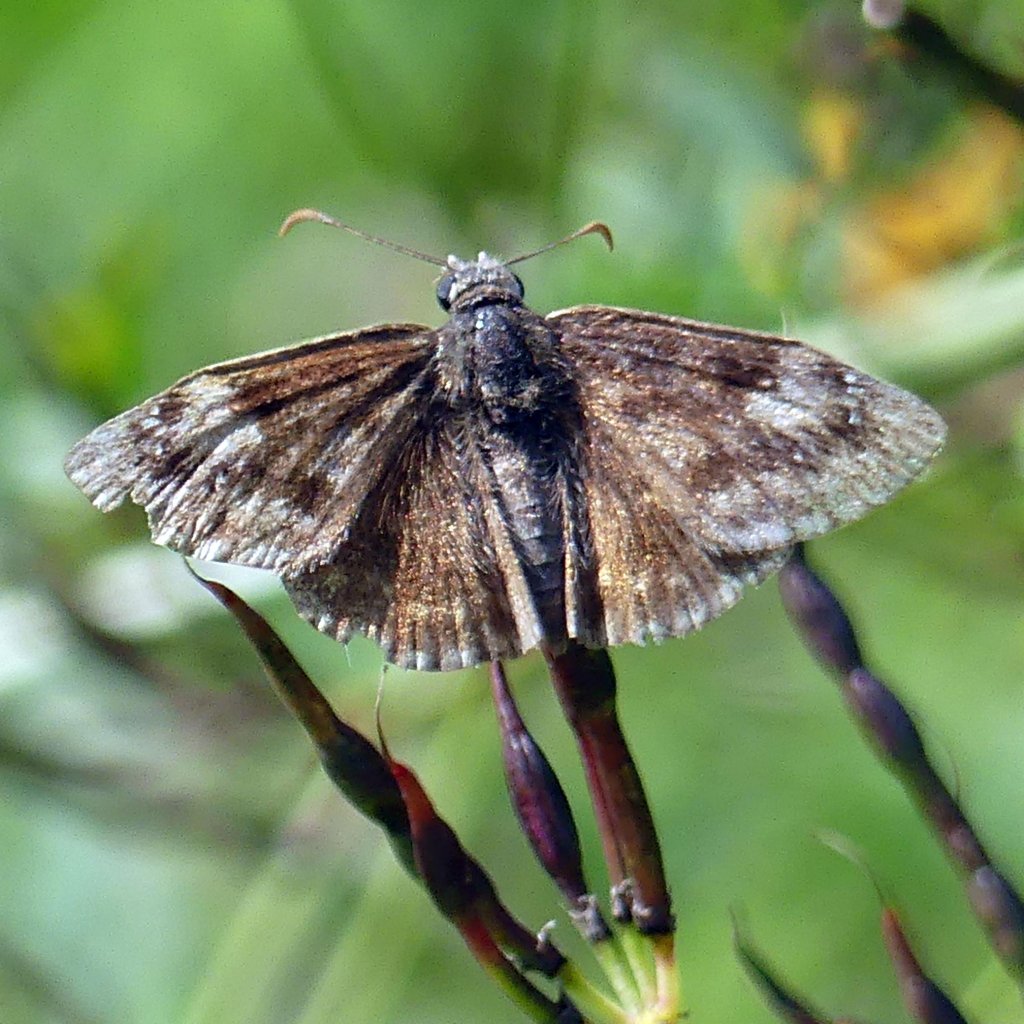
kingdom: Animalia
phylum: Arthropoda
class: Insecta
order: Lepidoptera
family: Hesperiidae
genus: Gesta
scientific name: Gesta
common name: Wild Indigo Duskywing
